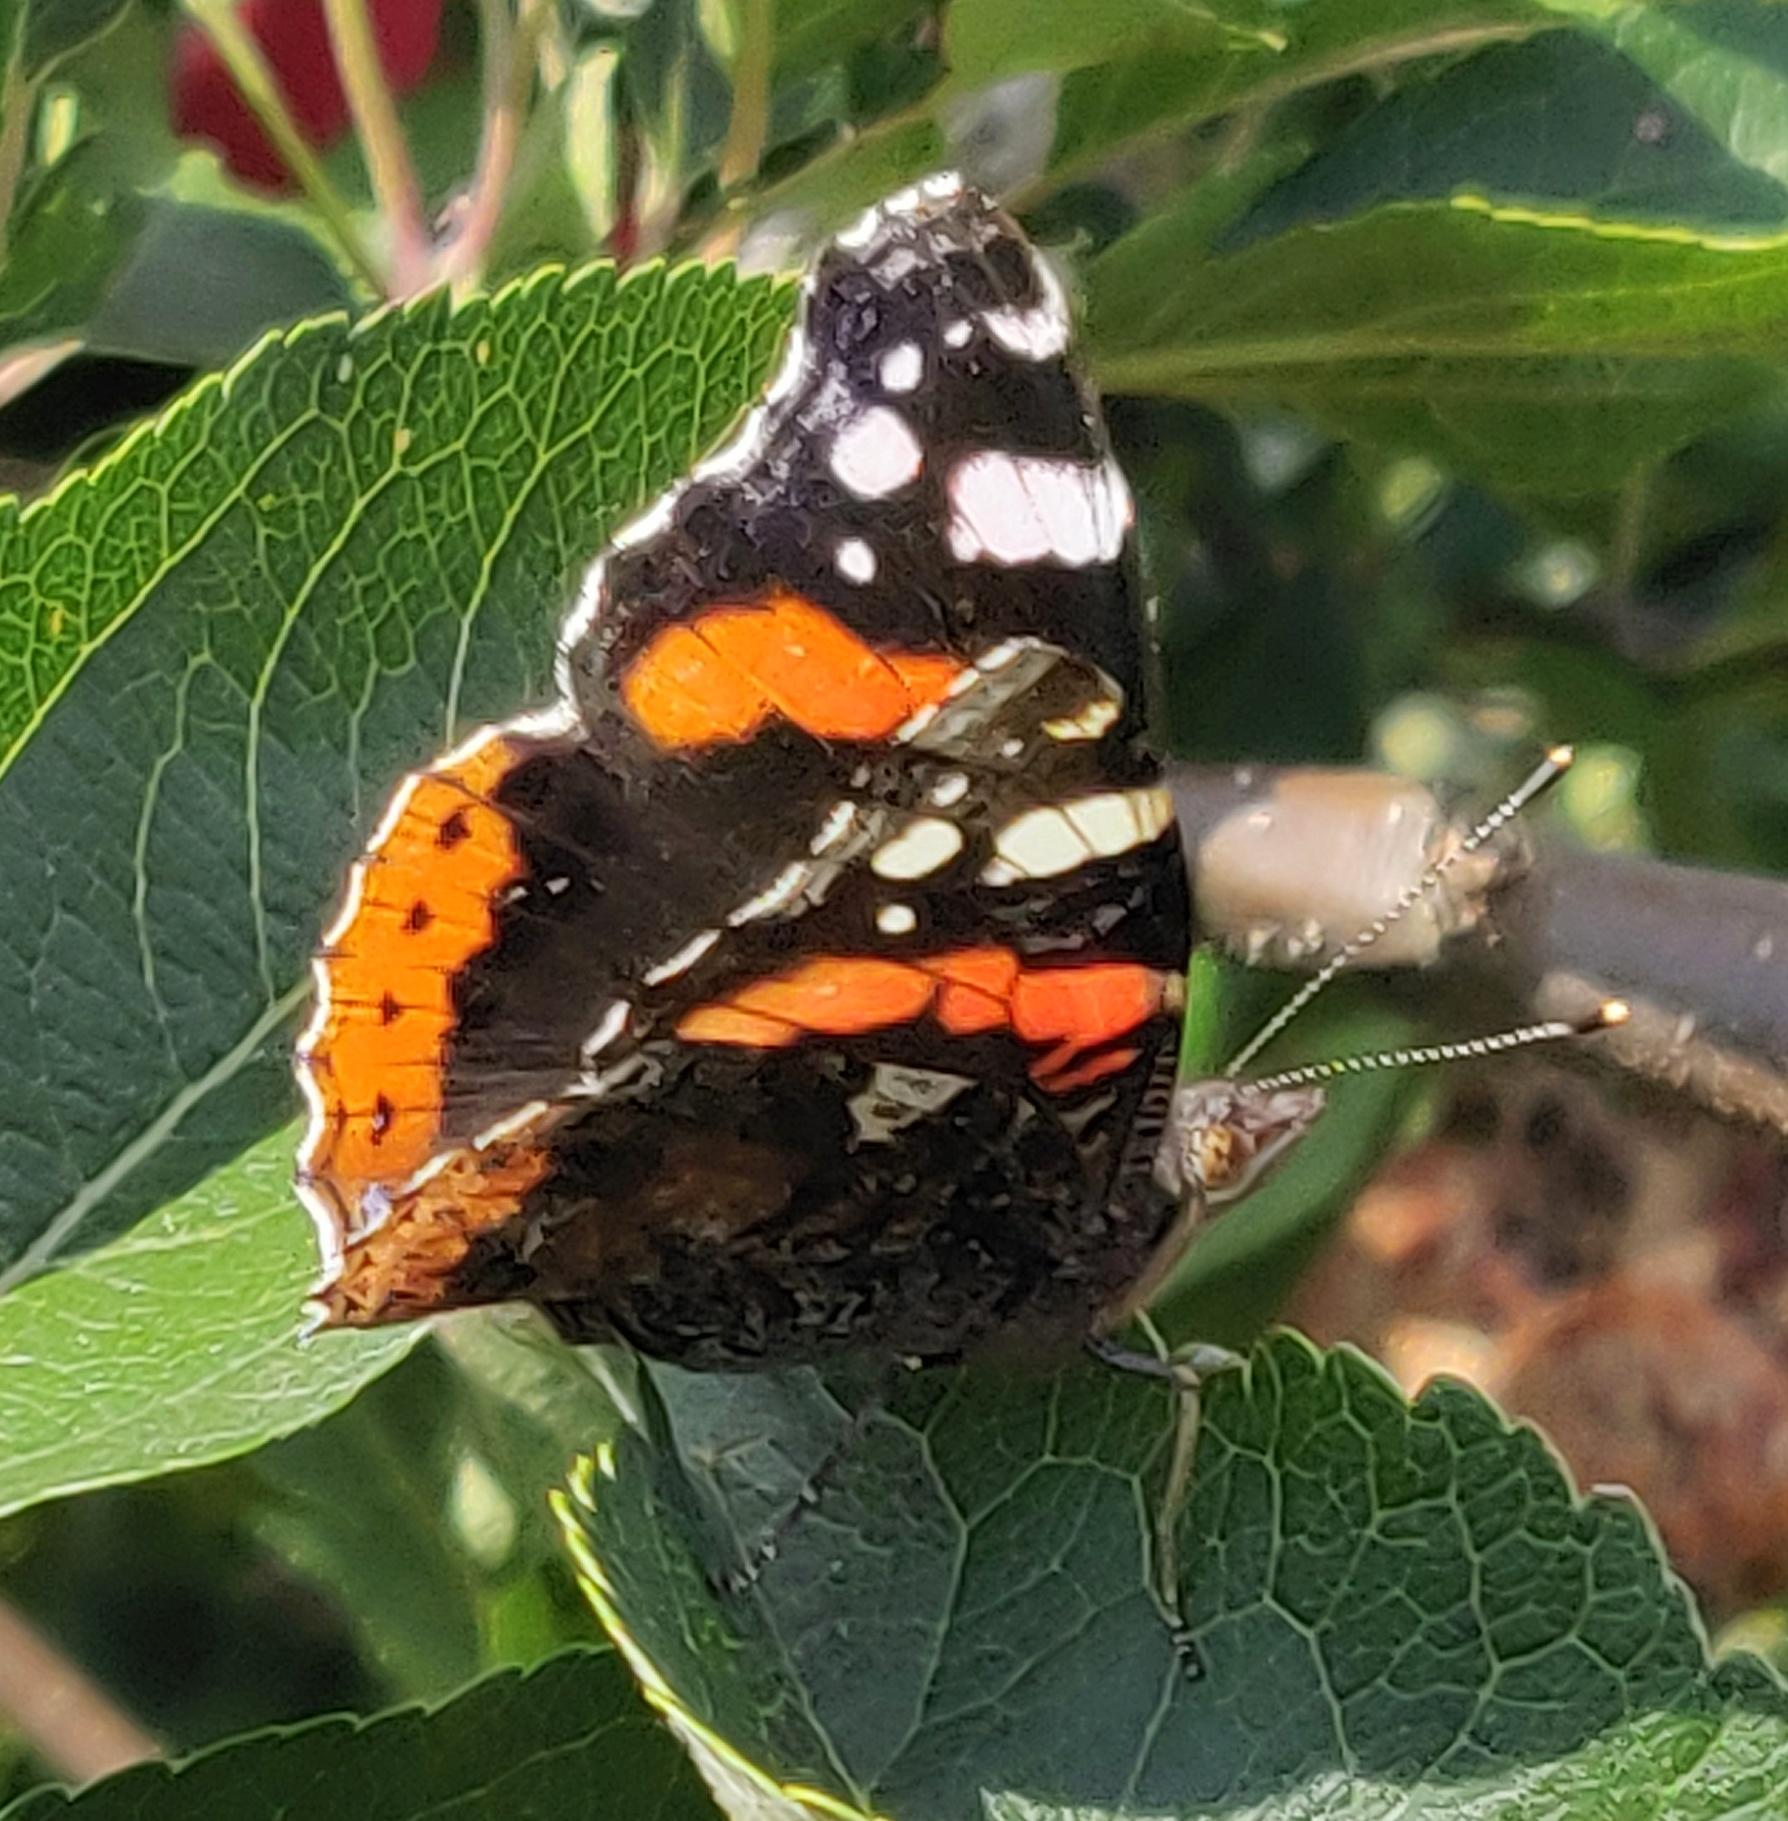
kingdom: Animalia
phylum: Arthropoda
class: Insecta
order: Lepidoptera
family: Nymphalidae
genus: Vanessa
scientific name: Vanessa atalanta
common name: Admiral
